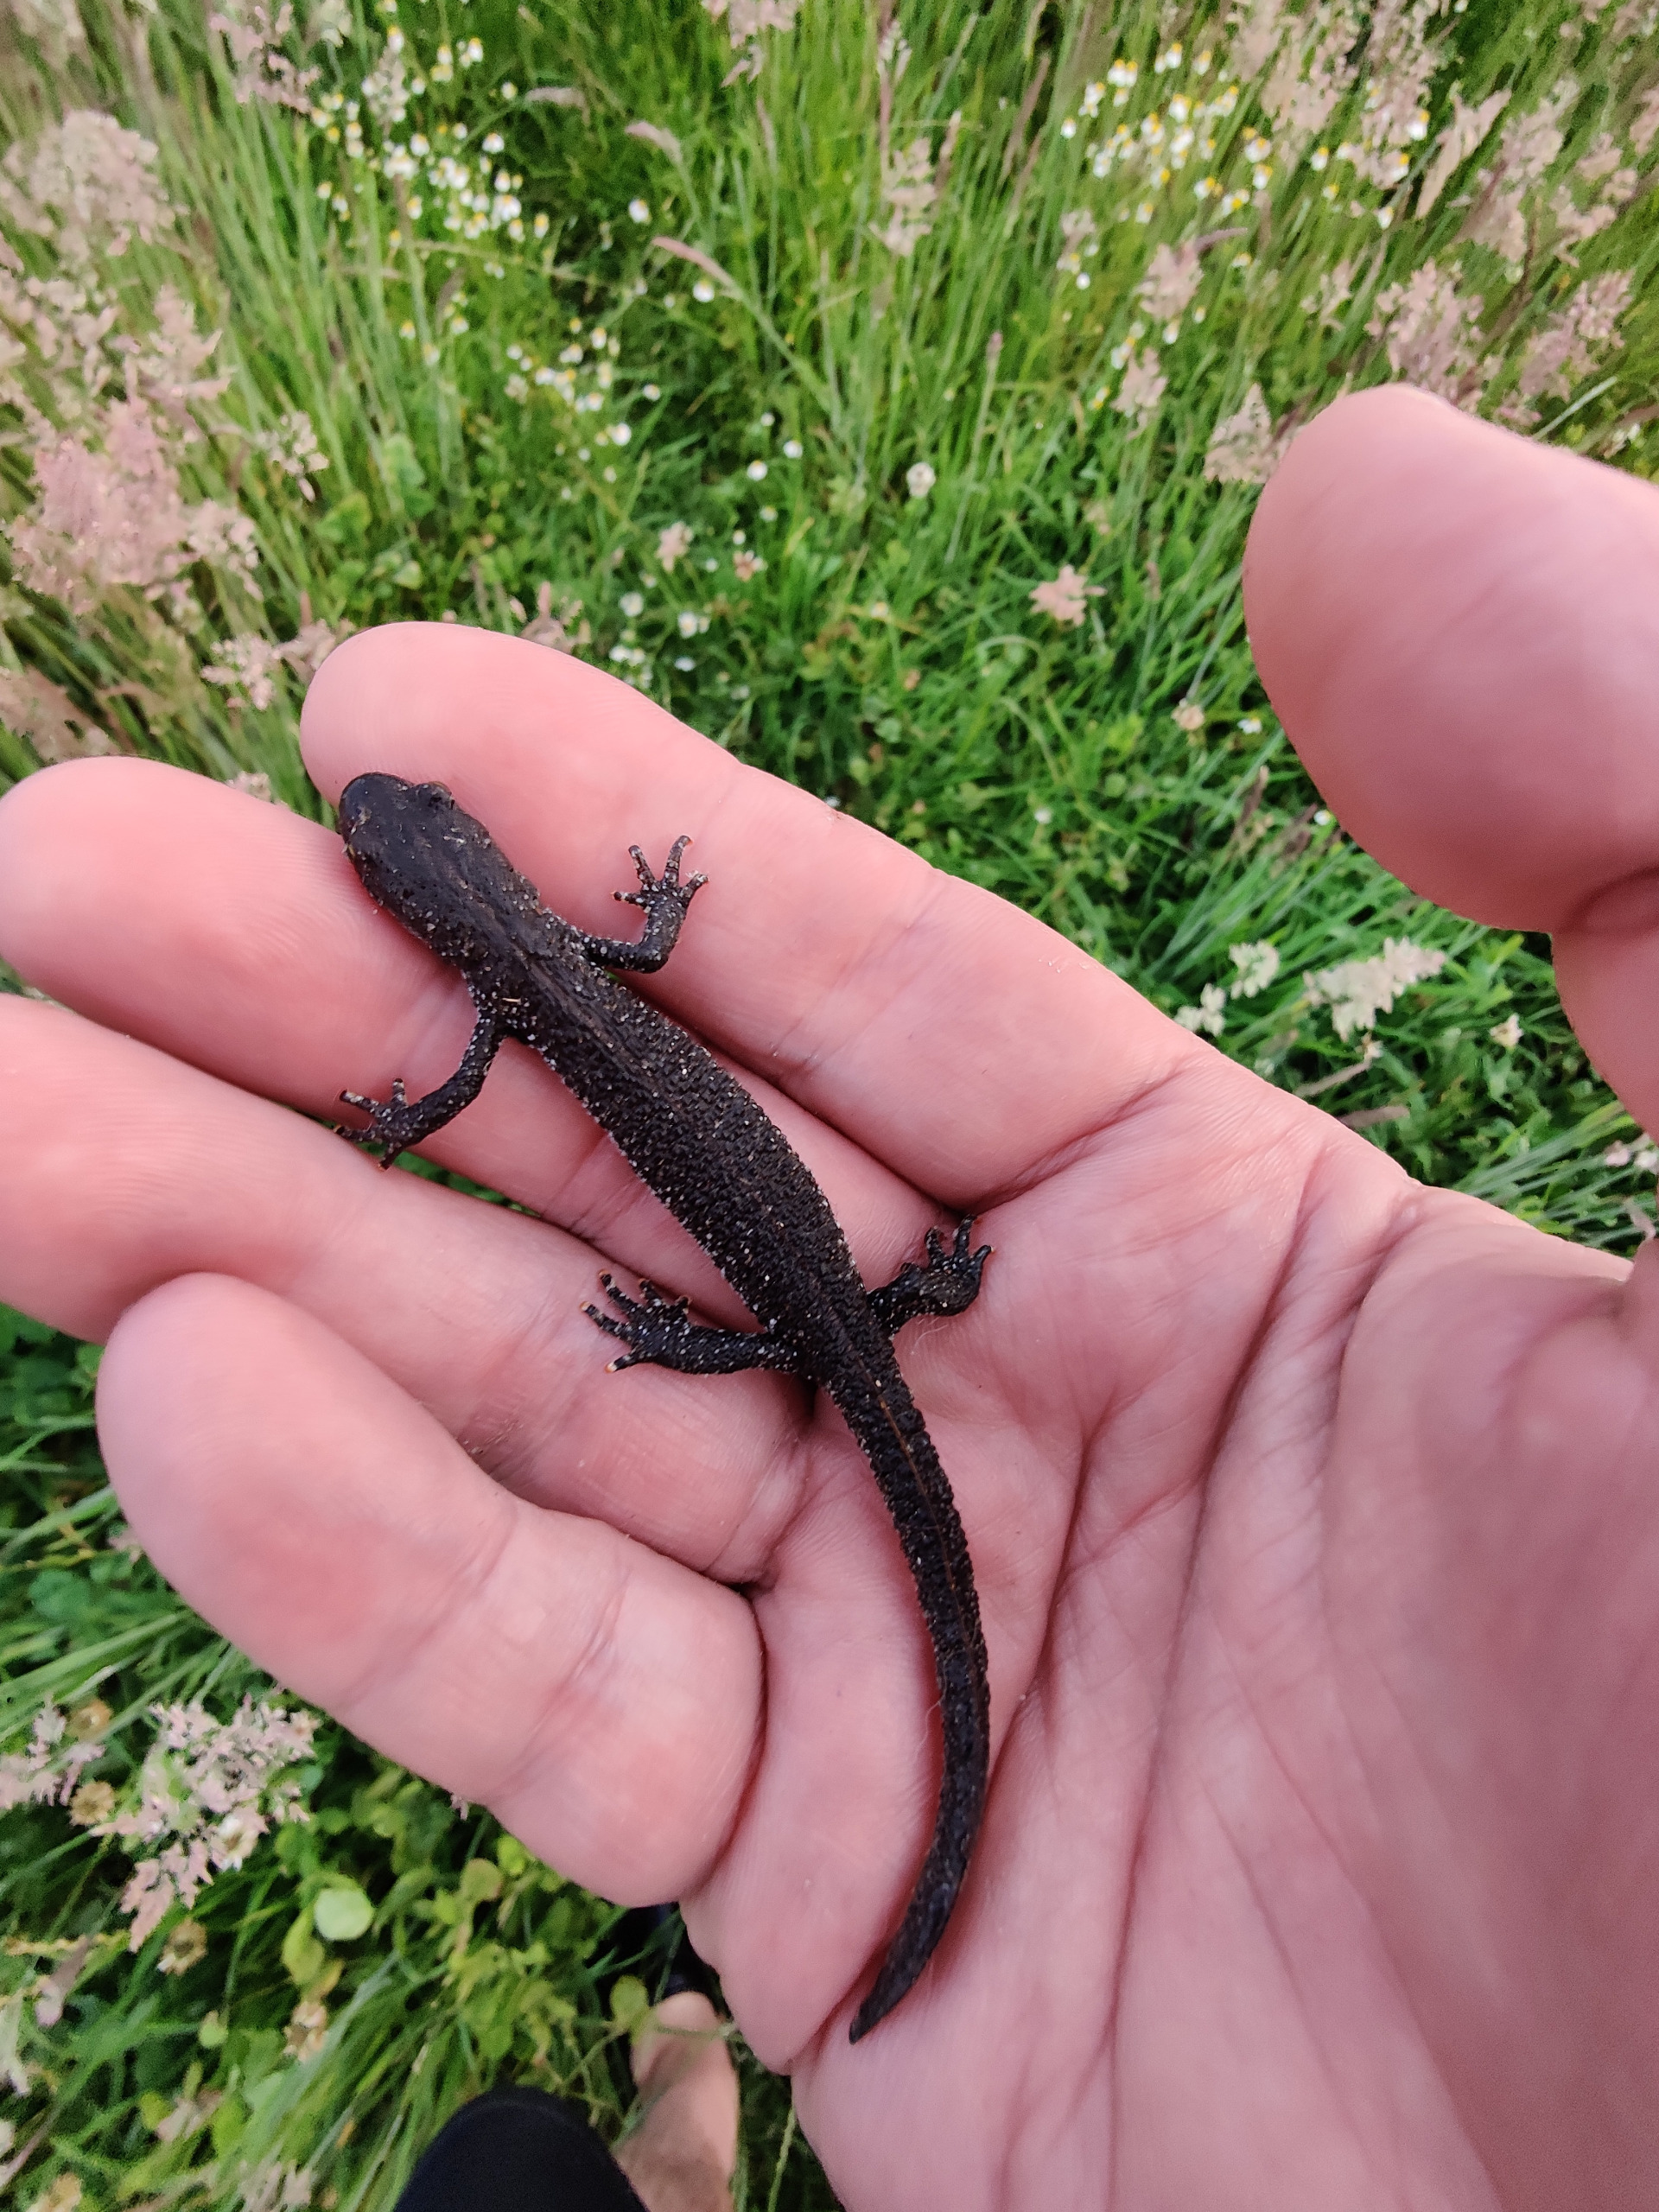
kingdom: Animalia
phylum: Chordata
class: Amphibia
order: Caudata
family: Salamandridae
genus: Triturus
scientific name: Triturus cristatus
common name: Stor vandsalamander
